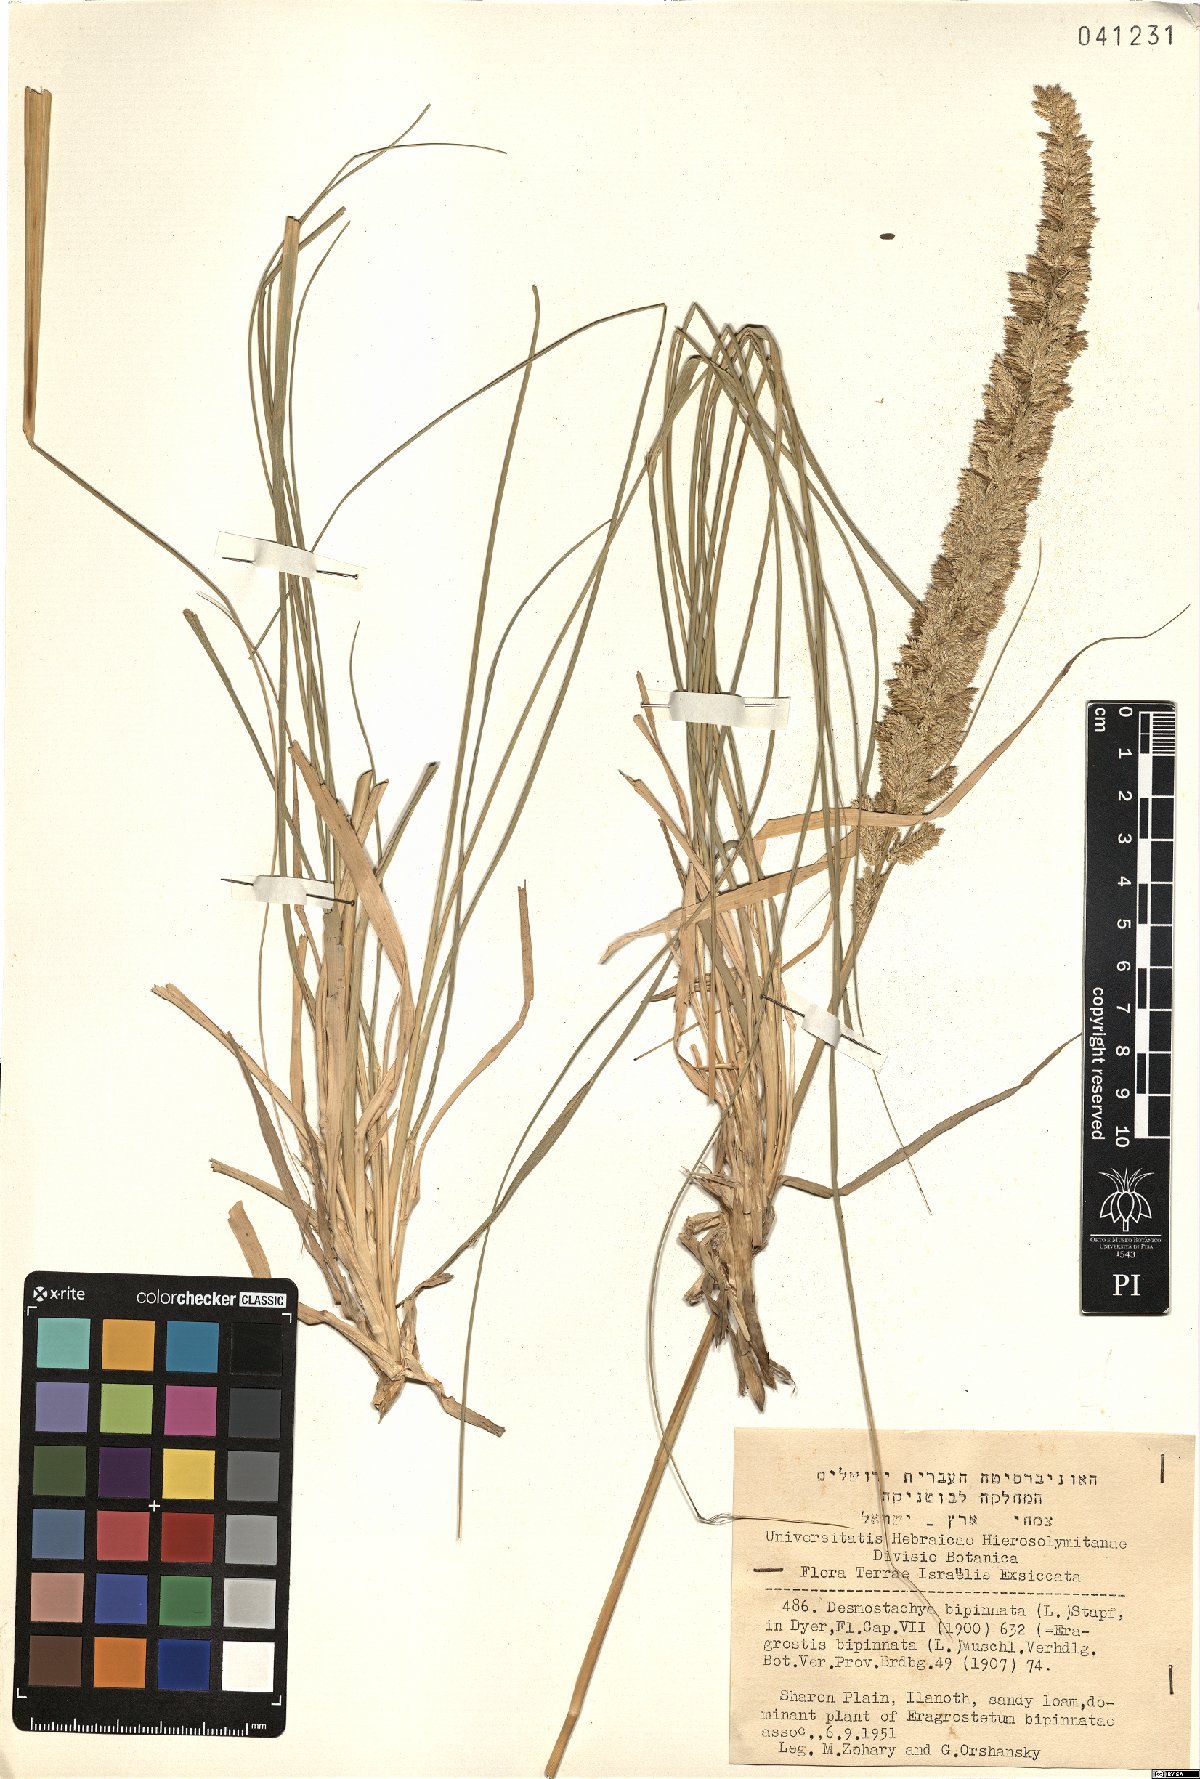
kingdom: Plantae
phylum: Tracheophyta
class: Liliopsida
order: Poales
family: Poaceae
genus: Desmostachya
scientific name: Desmostachya bipinnata
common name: Crowfoot grass
